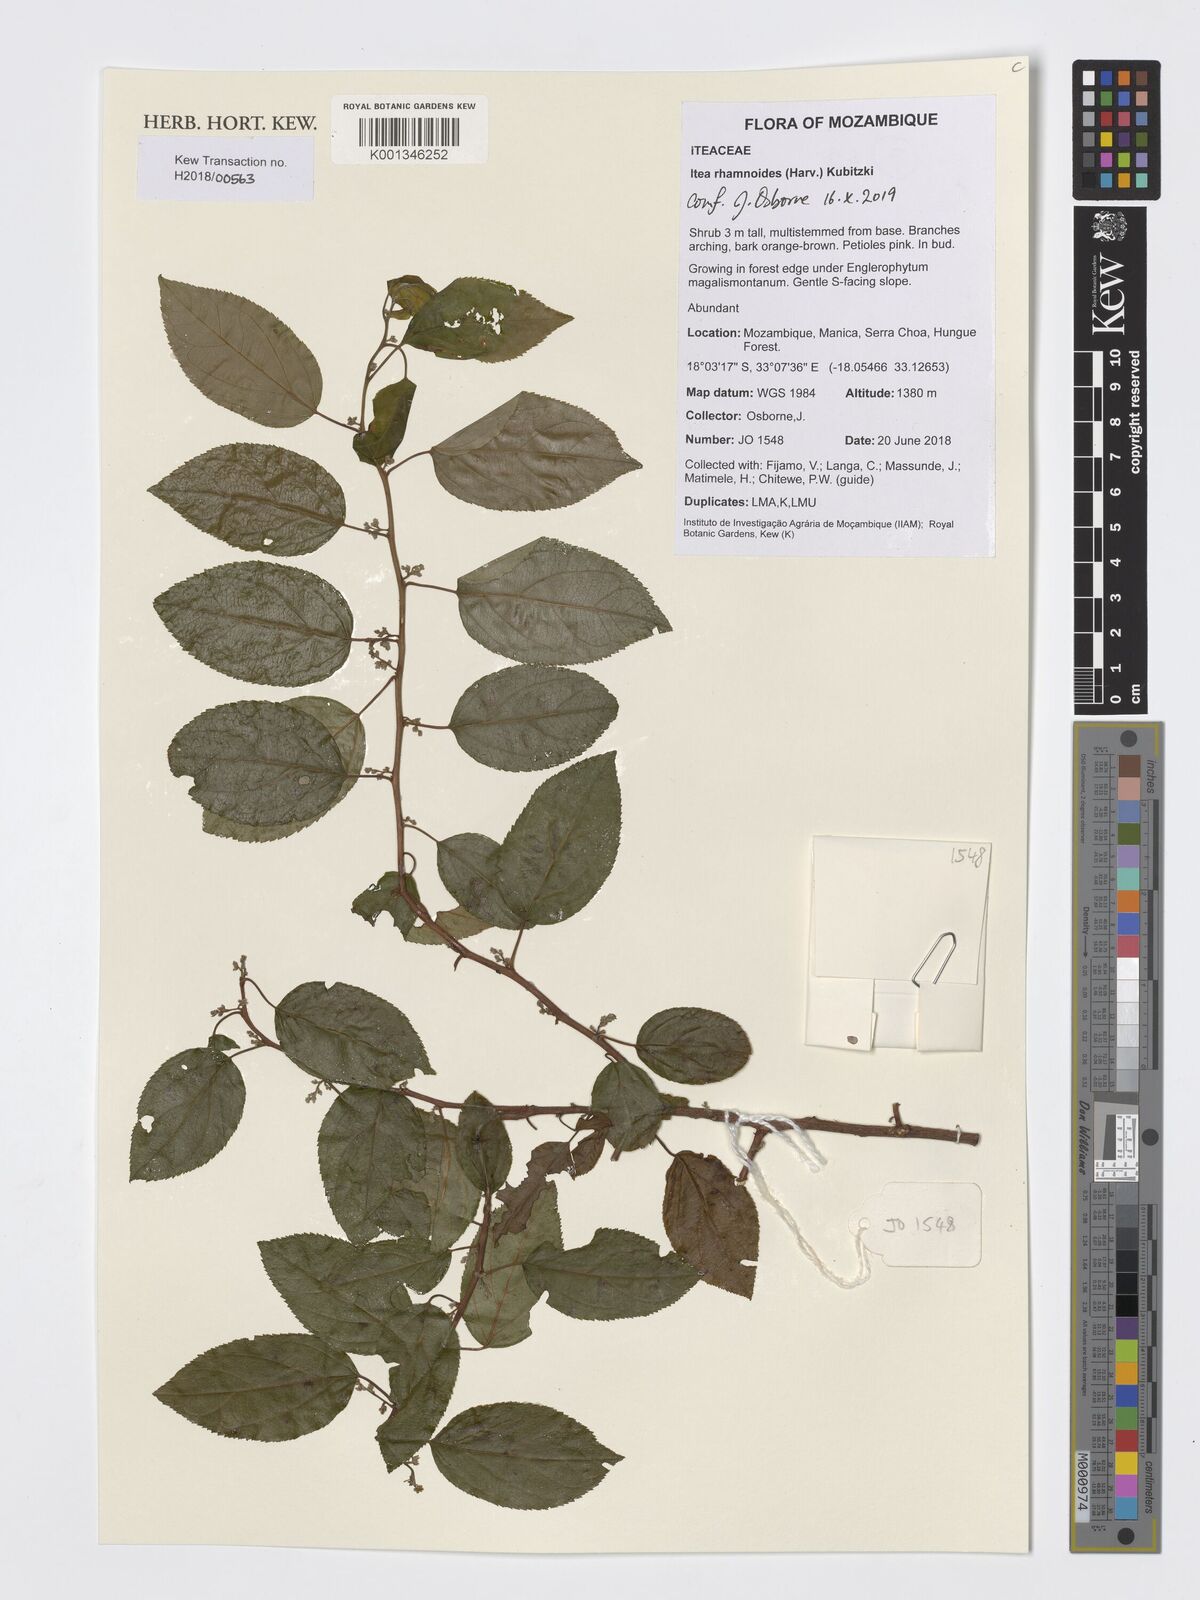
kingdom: Plantae
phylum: Tracheophyta
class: Magnoliopsida
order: Saxifragales
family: Iteaceae
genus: Itea
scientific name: Itea rhamnoides
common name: False dogwood
